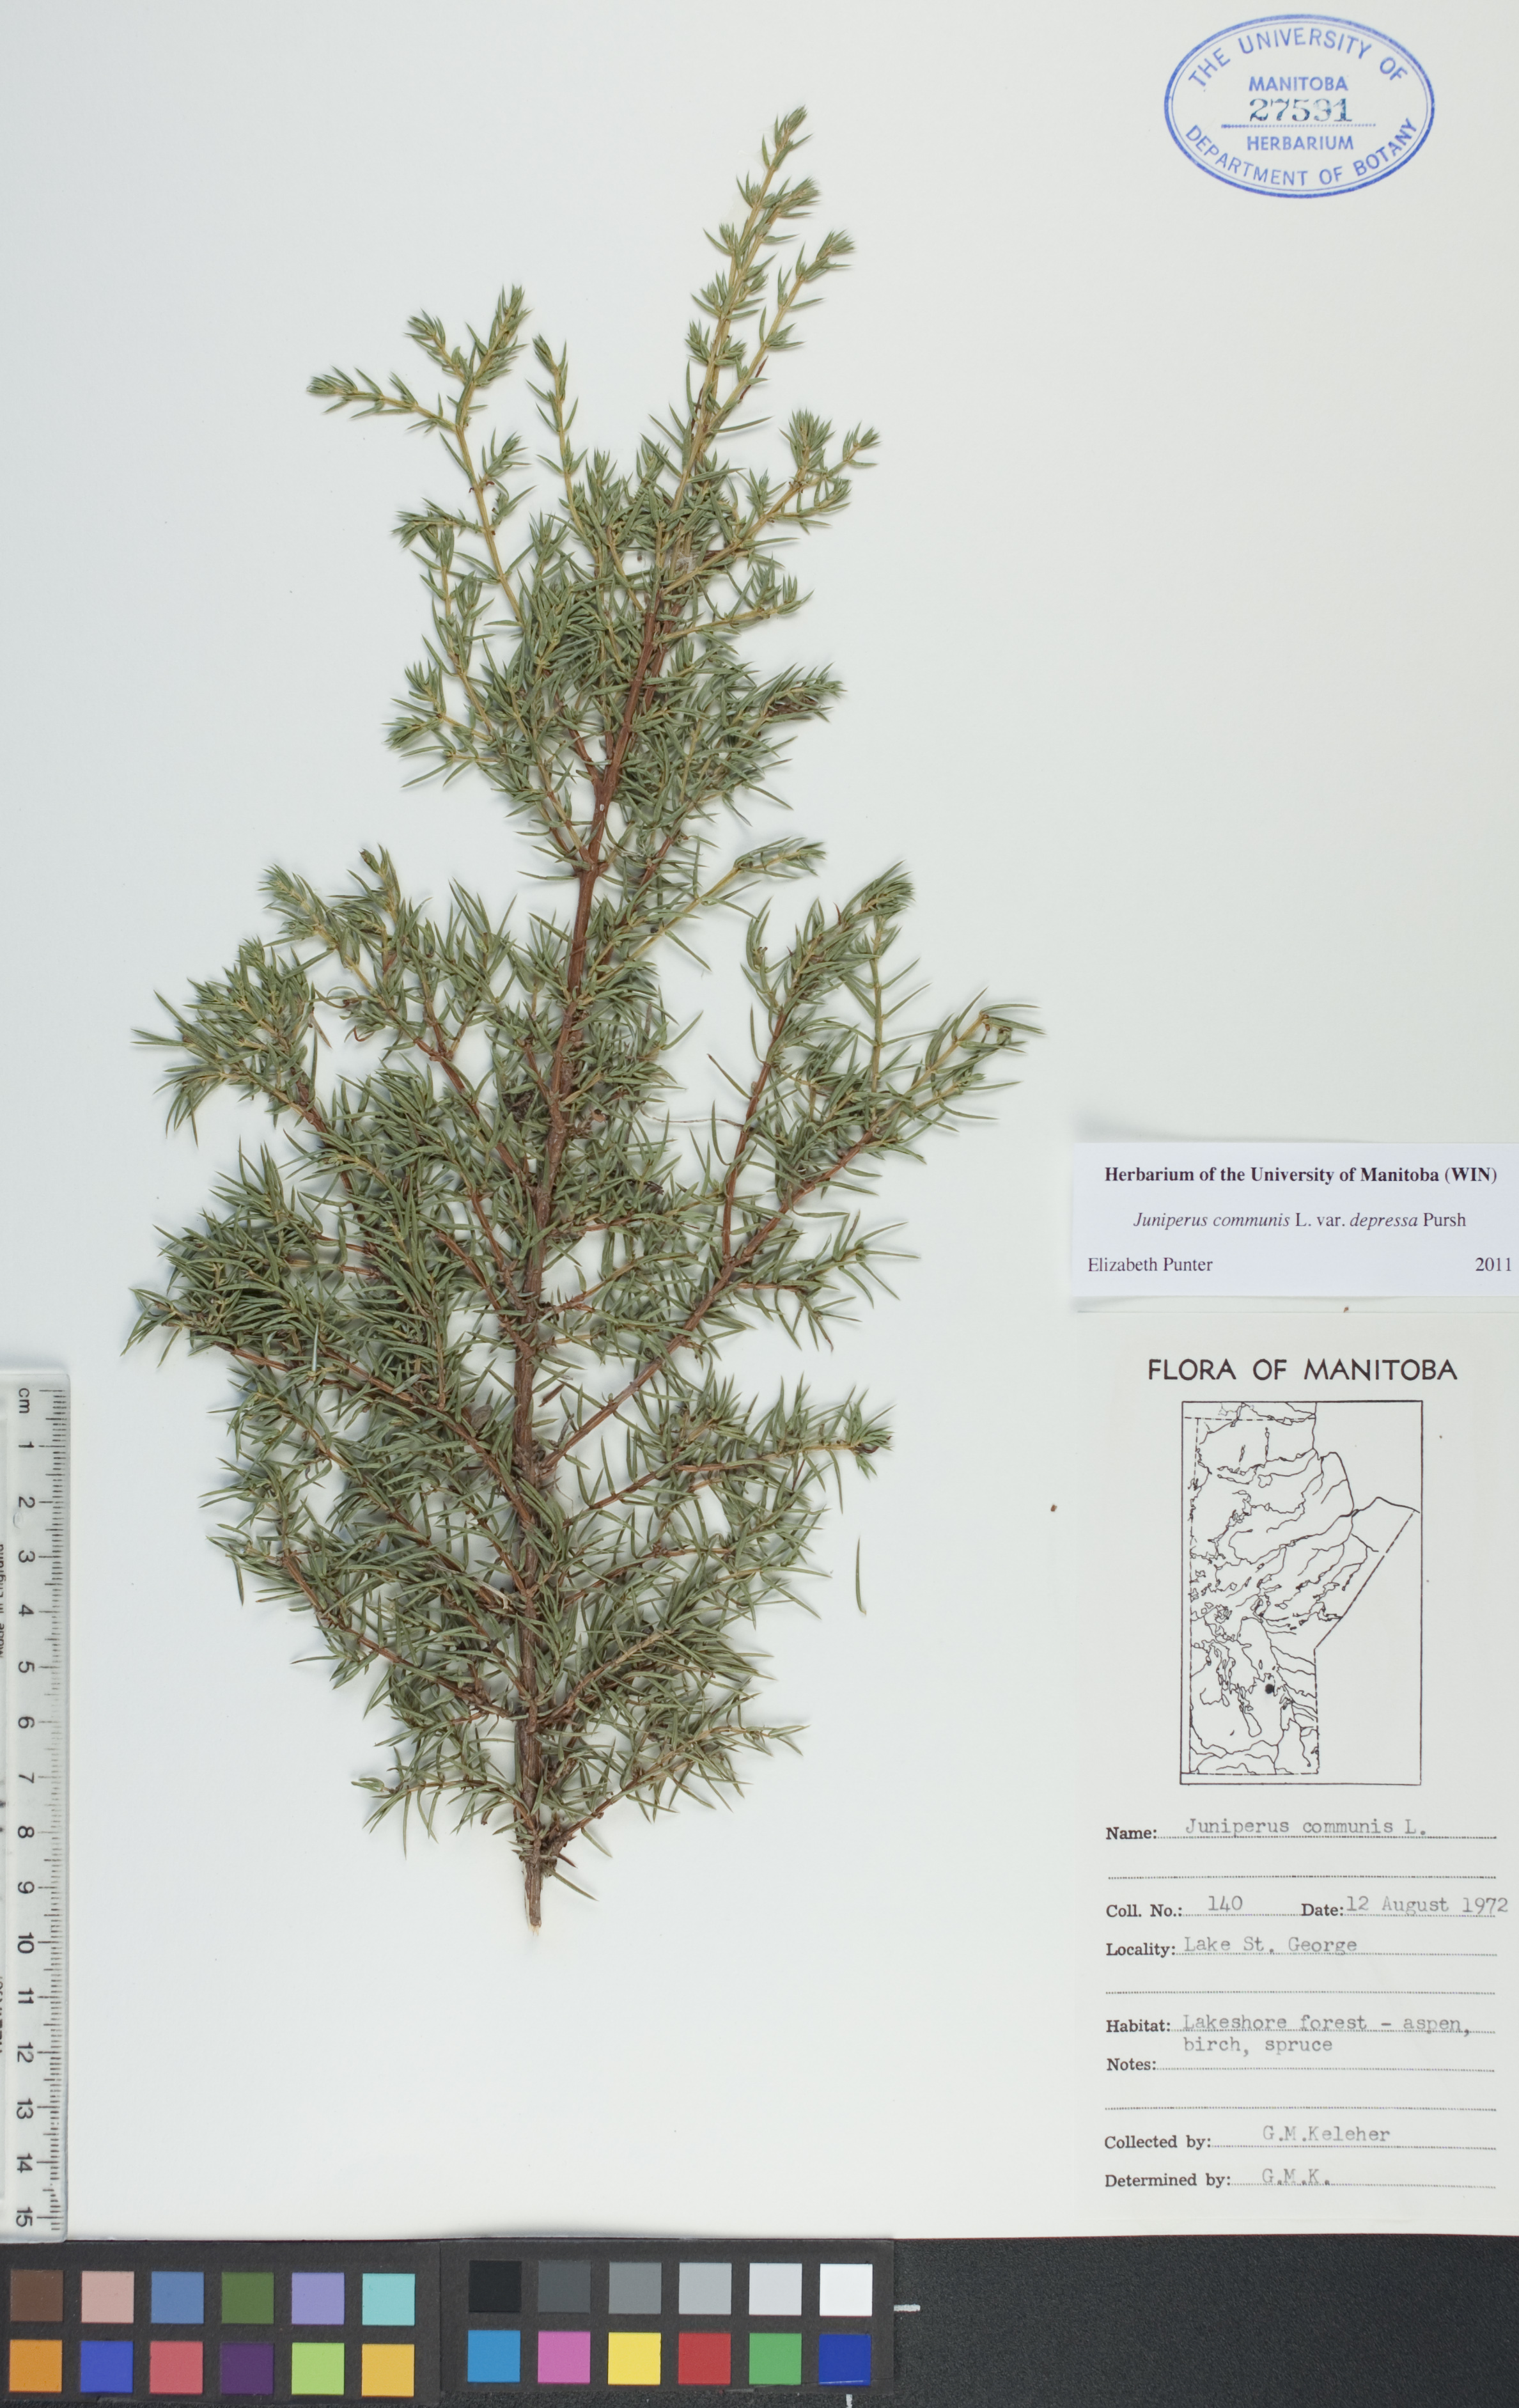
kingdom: Plantae
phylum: Tracheophyta
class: Pinopsida
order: Pinales
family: Cupressaceae
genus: Juniperus
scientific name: Juniperus communis
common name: Common juniper
